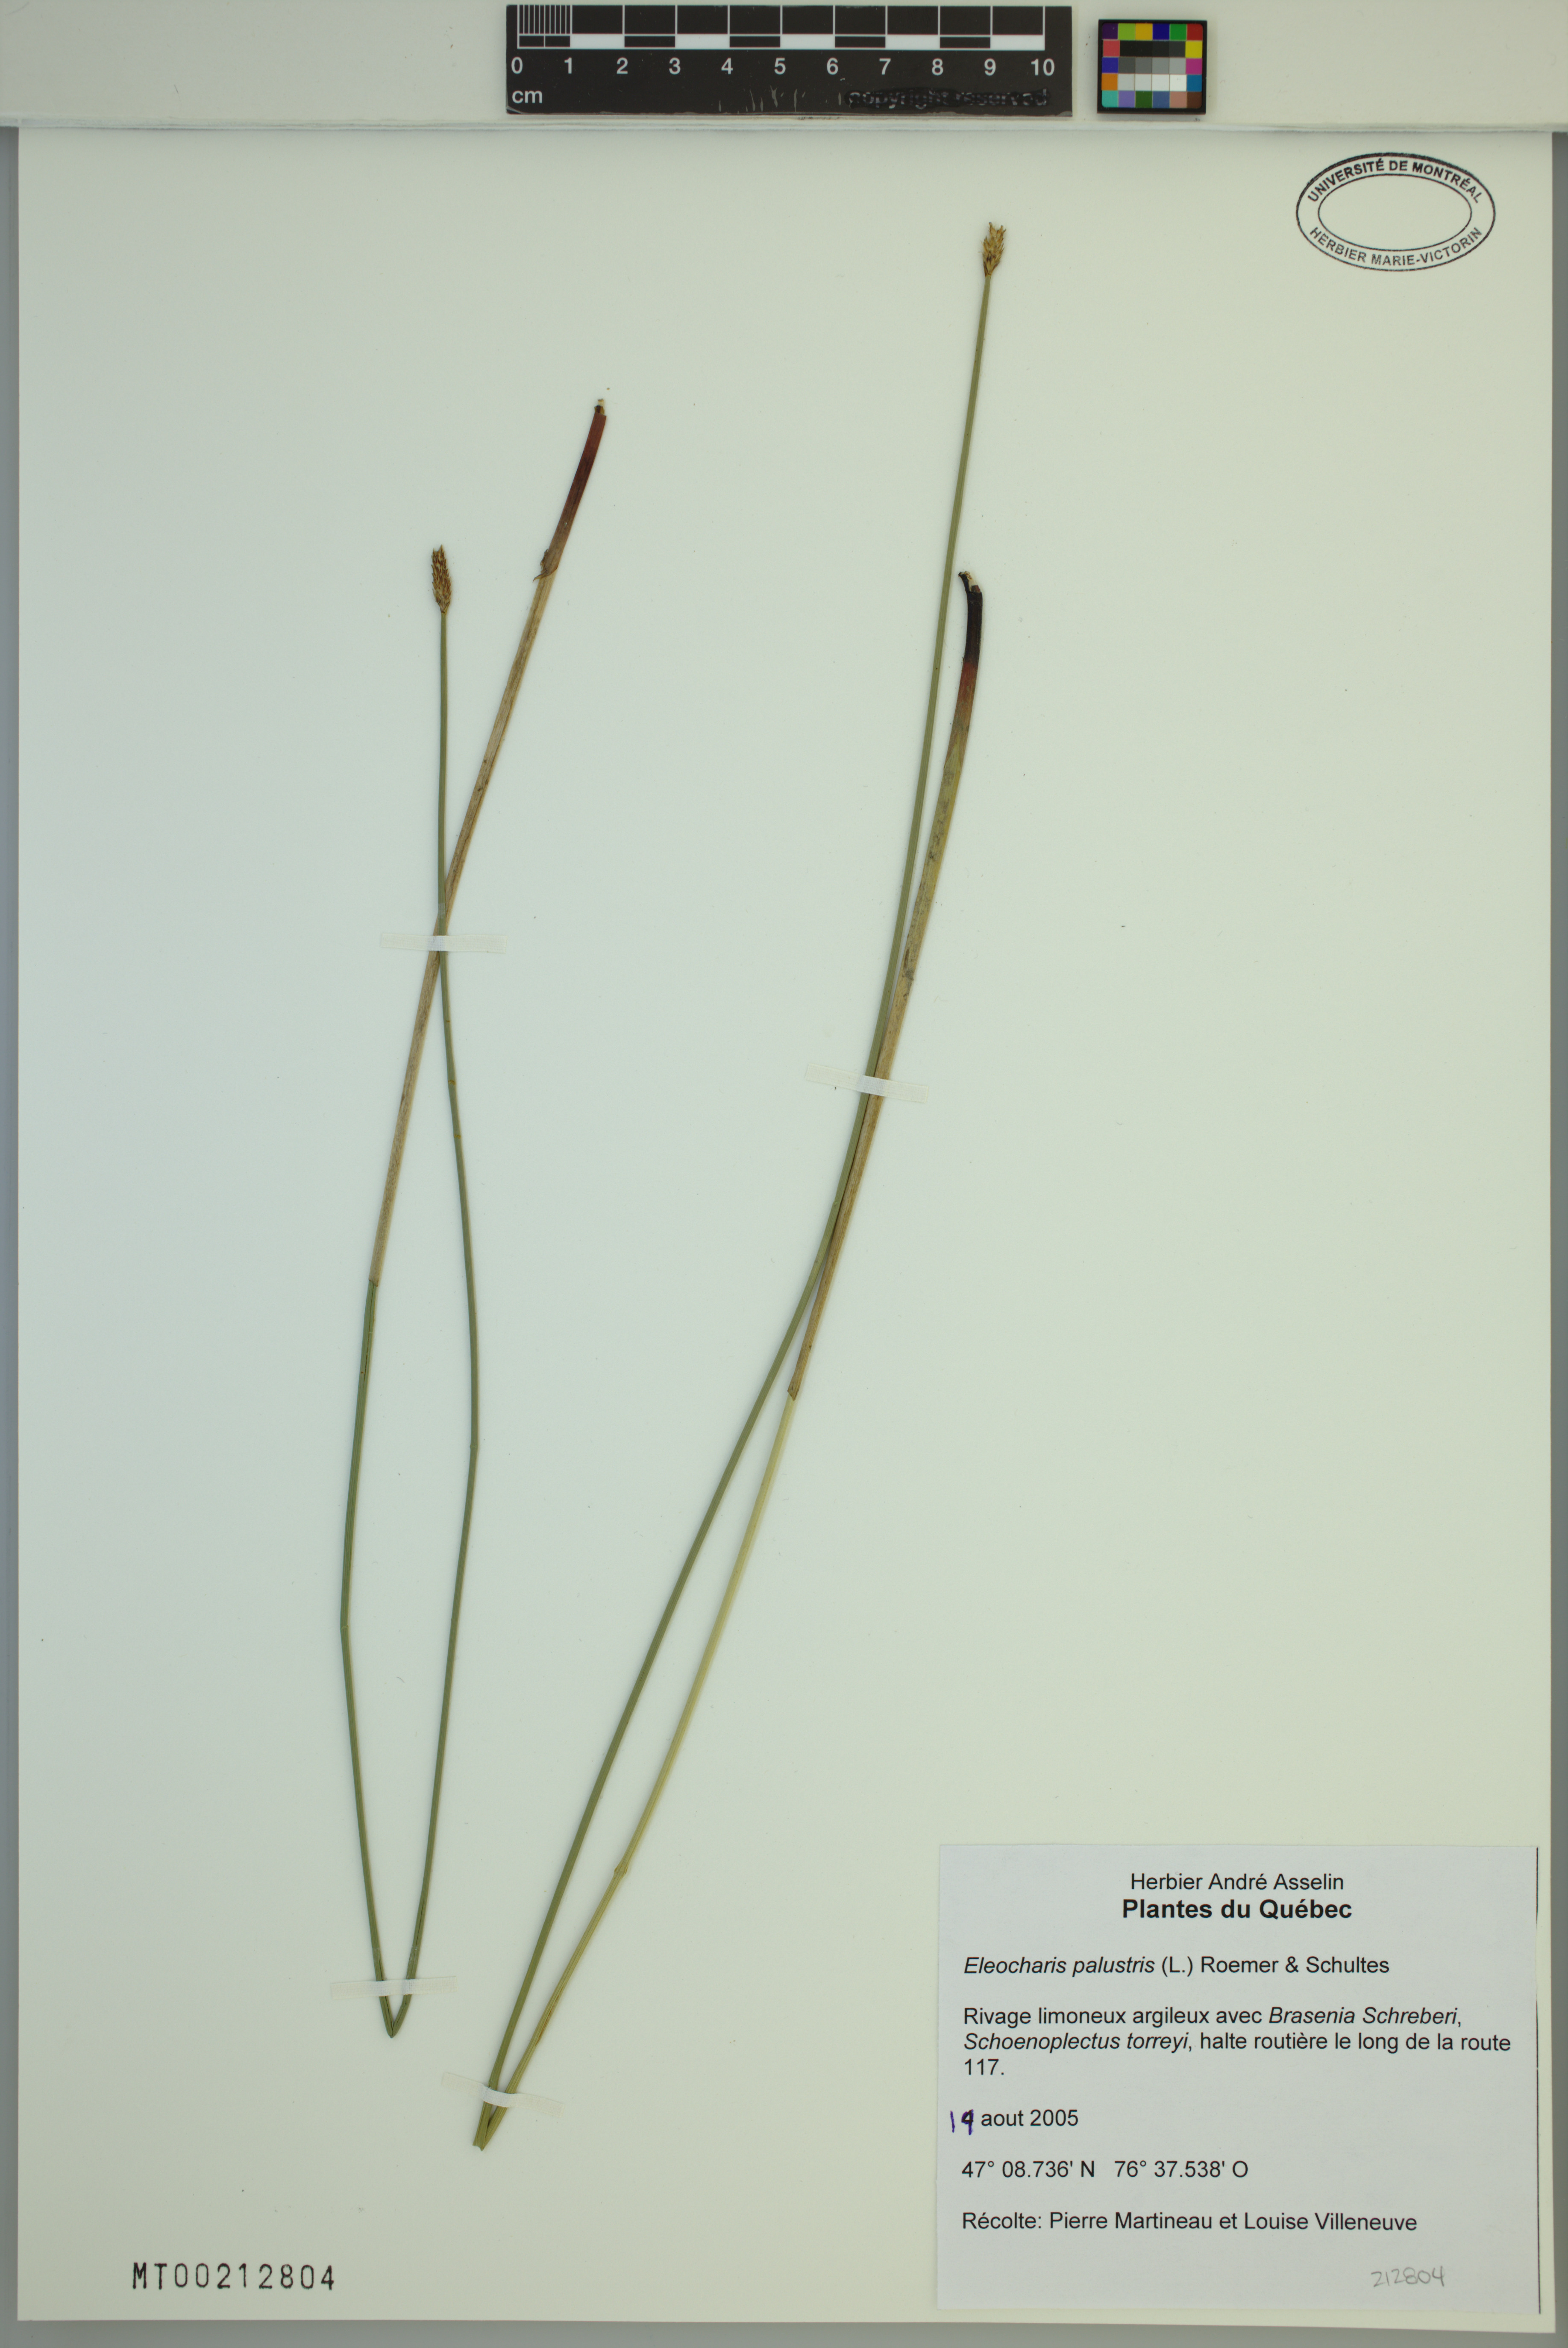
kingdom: Plantae
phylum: Tracheophyta
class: Liliopsida
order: Poales
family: Cyperaceae
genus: Eleocharis
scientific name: Eleocharis palustris
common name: Common spike-rush
